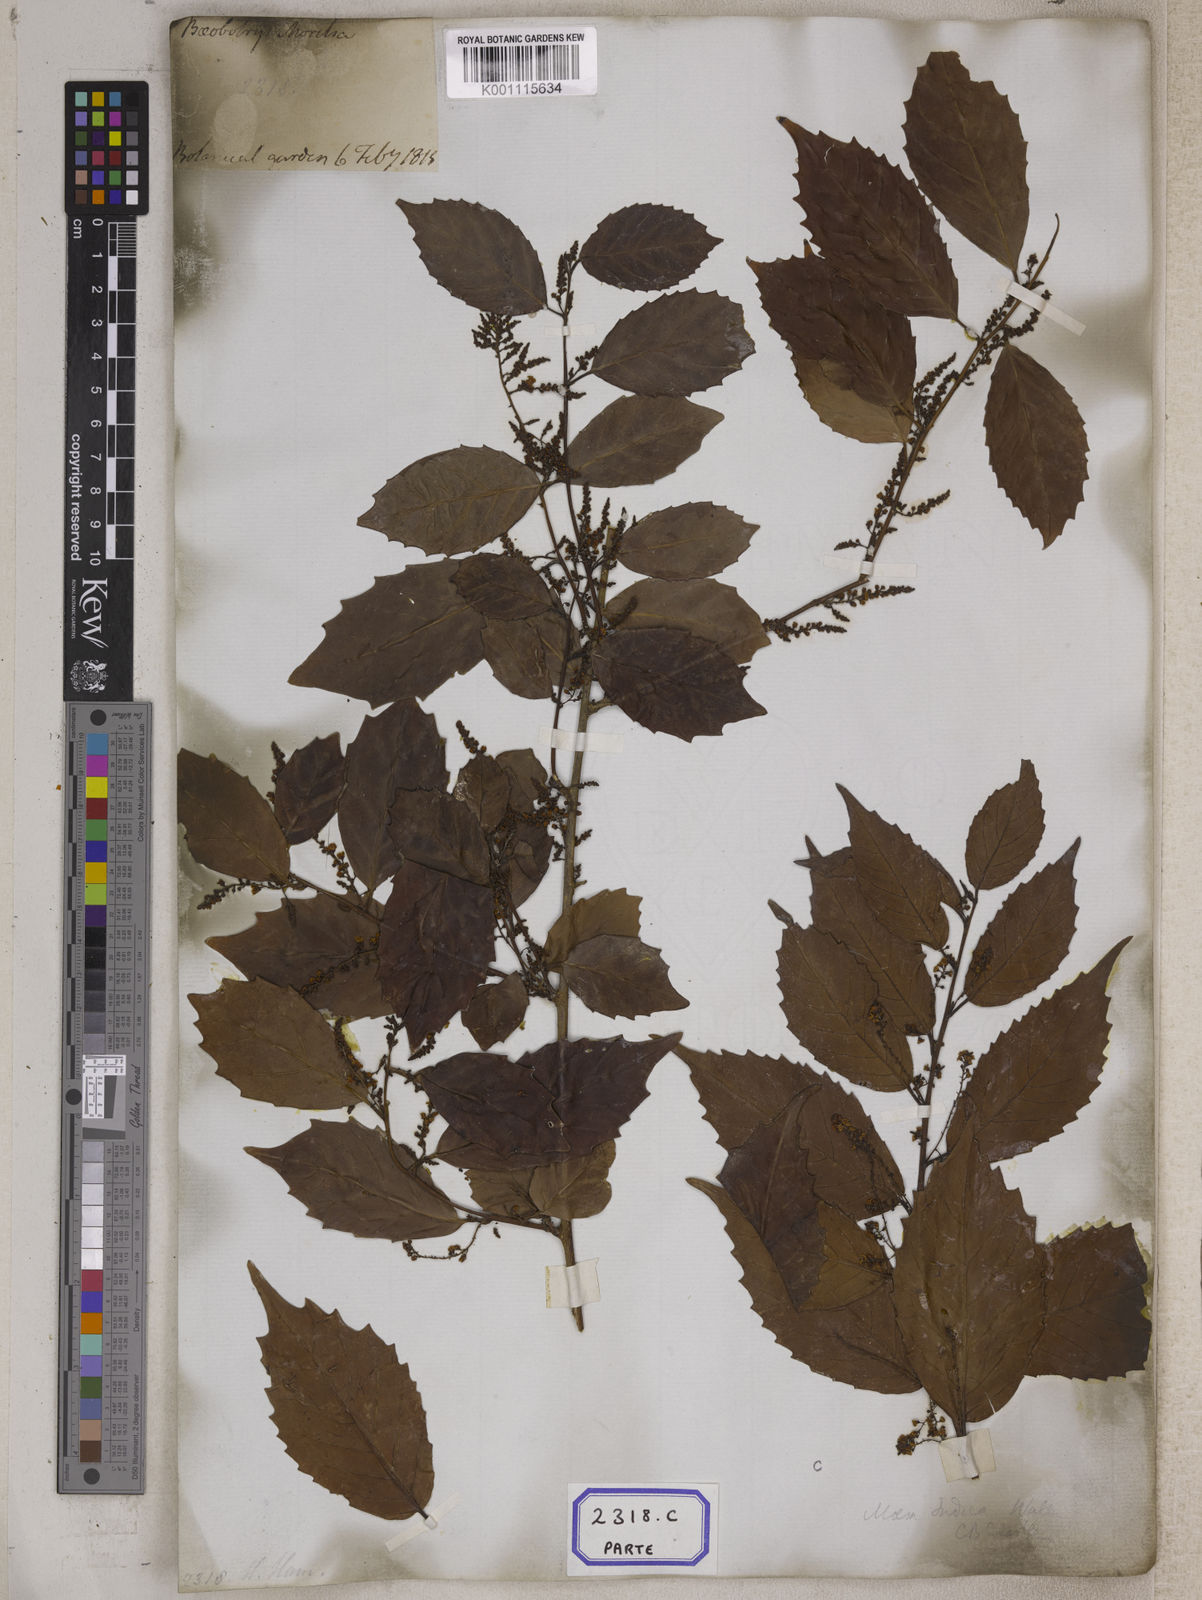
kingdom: Plantae
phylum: Tracheophyta
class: Magnoliopsida
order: Ericales
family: Primulaceae
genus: Maesa
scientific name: Maesa indica
